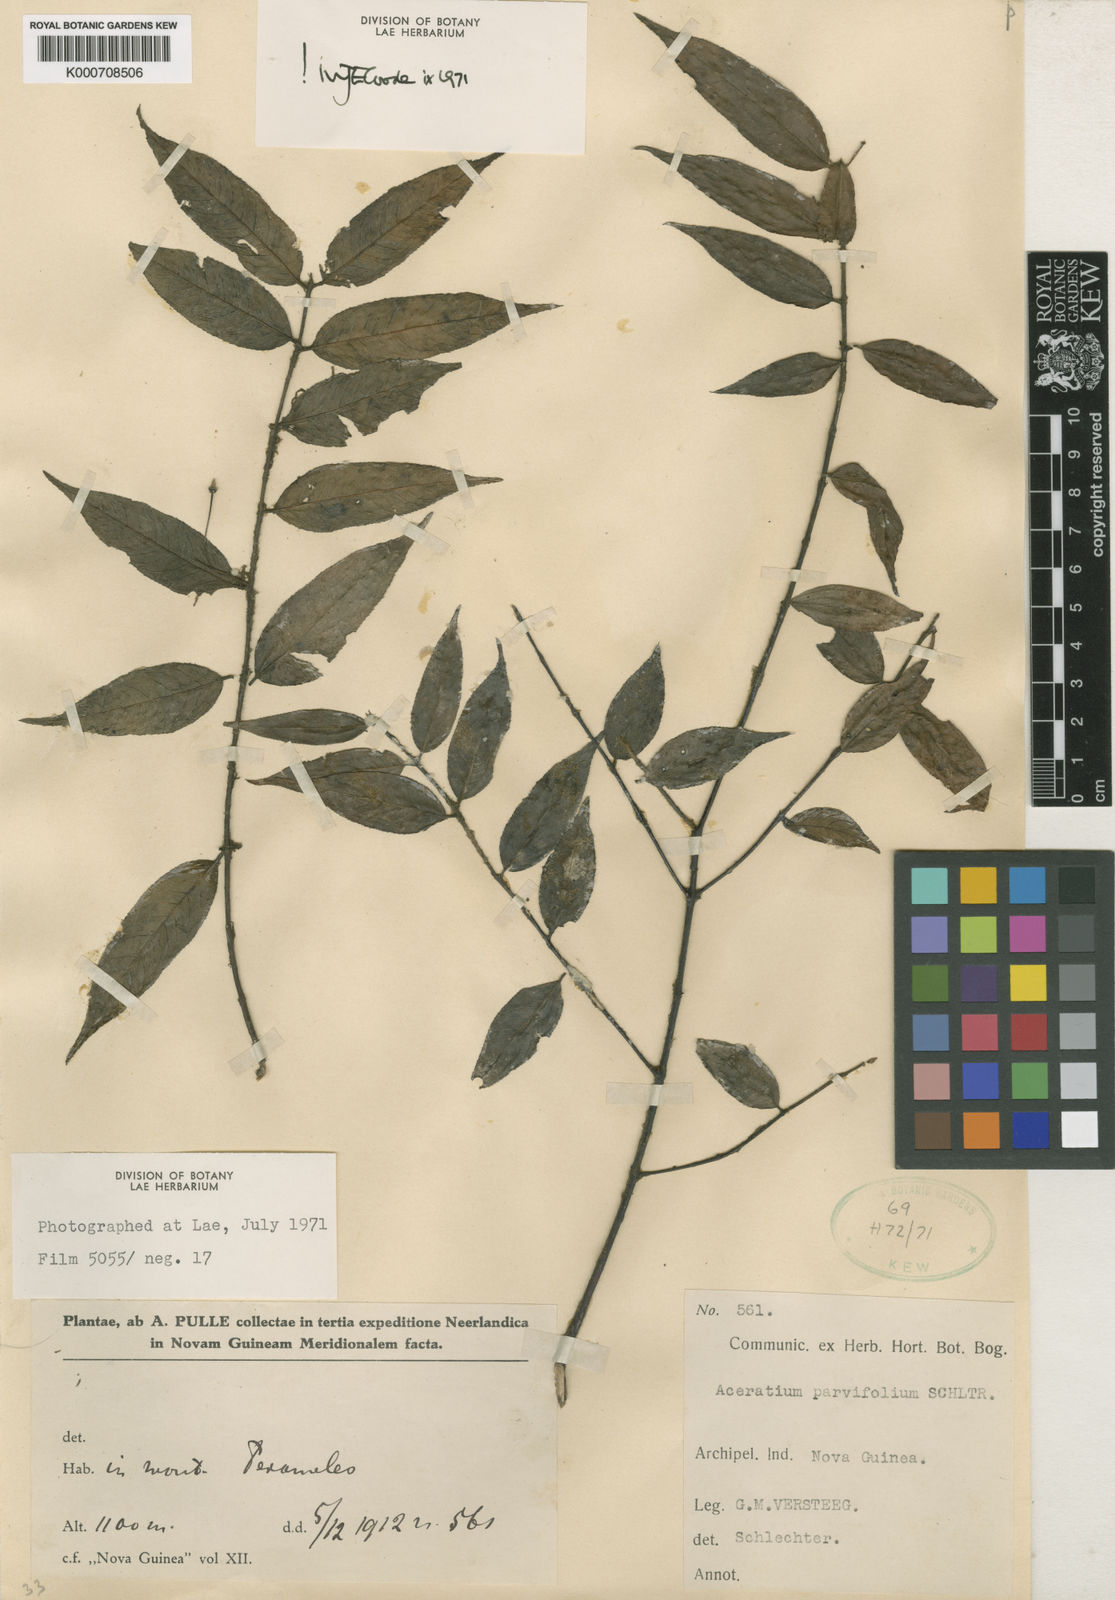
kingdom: Plantae
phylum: Tracheophyta
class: Magnoliopsida
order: Oxalidales
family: Elaeocarpaceae
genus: Aceratium
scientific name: Aceratium parvifolium
